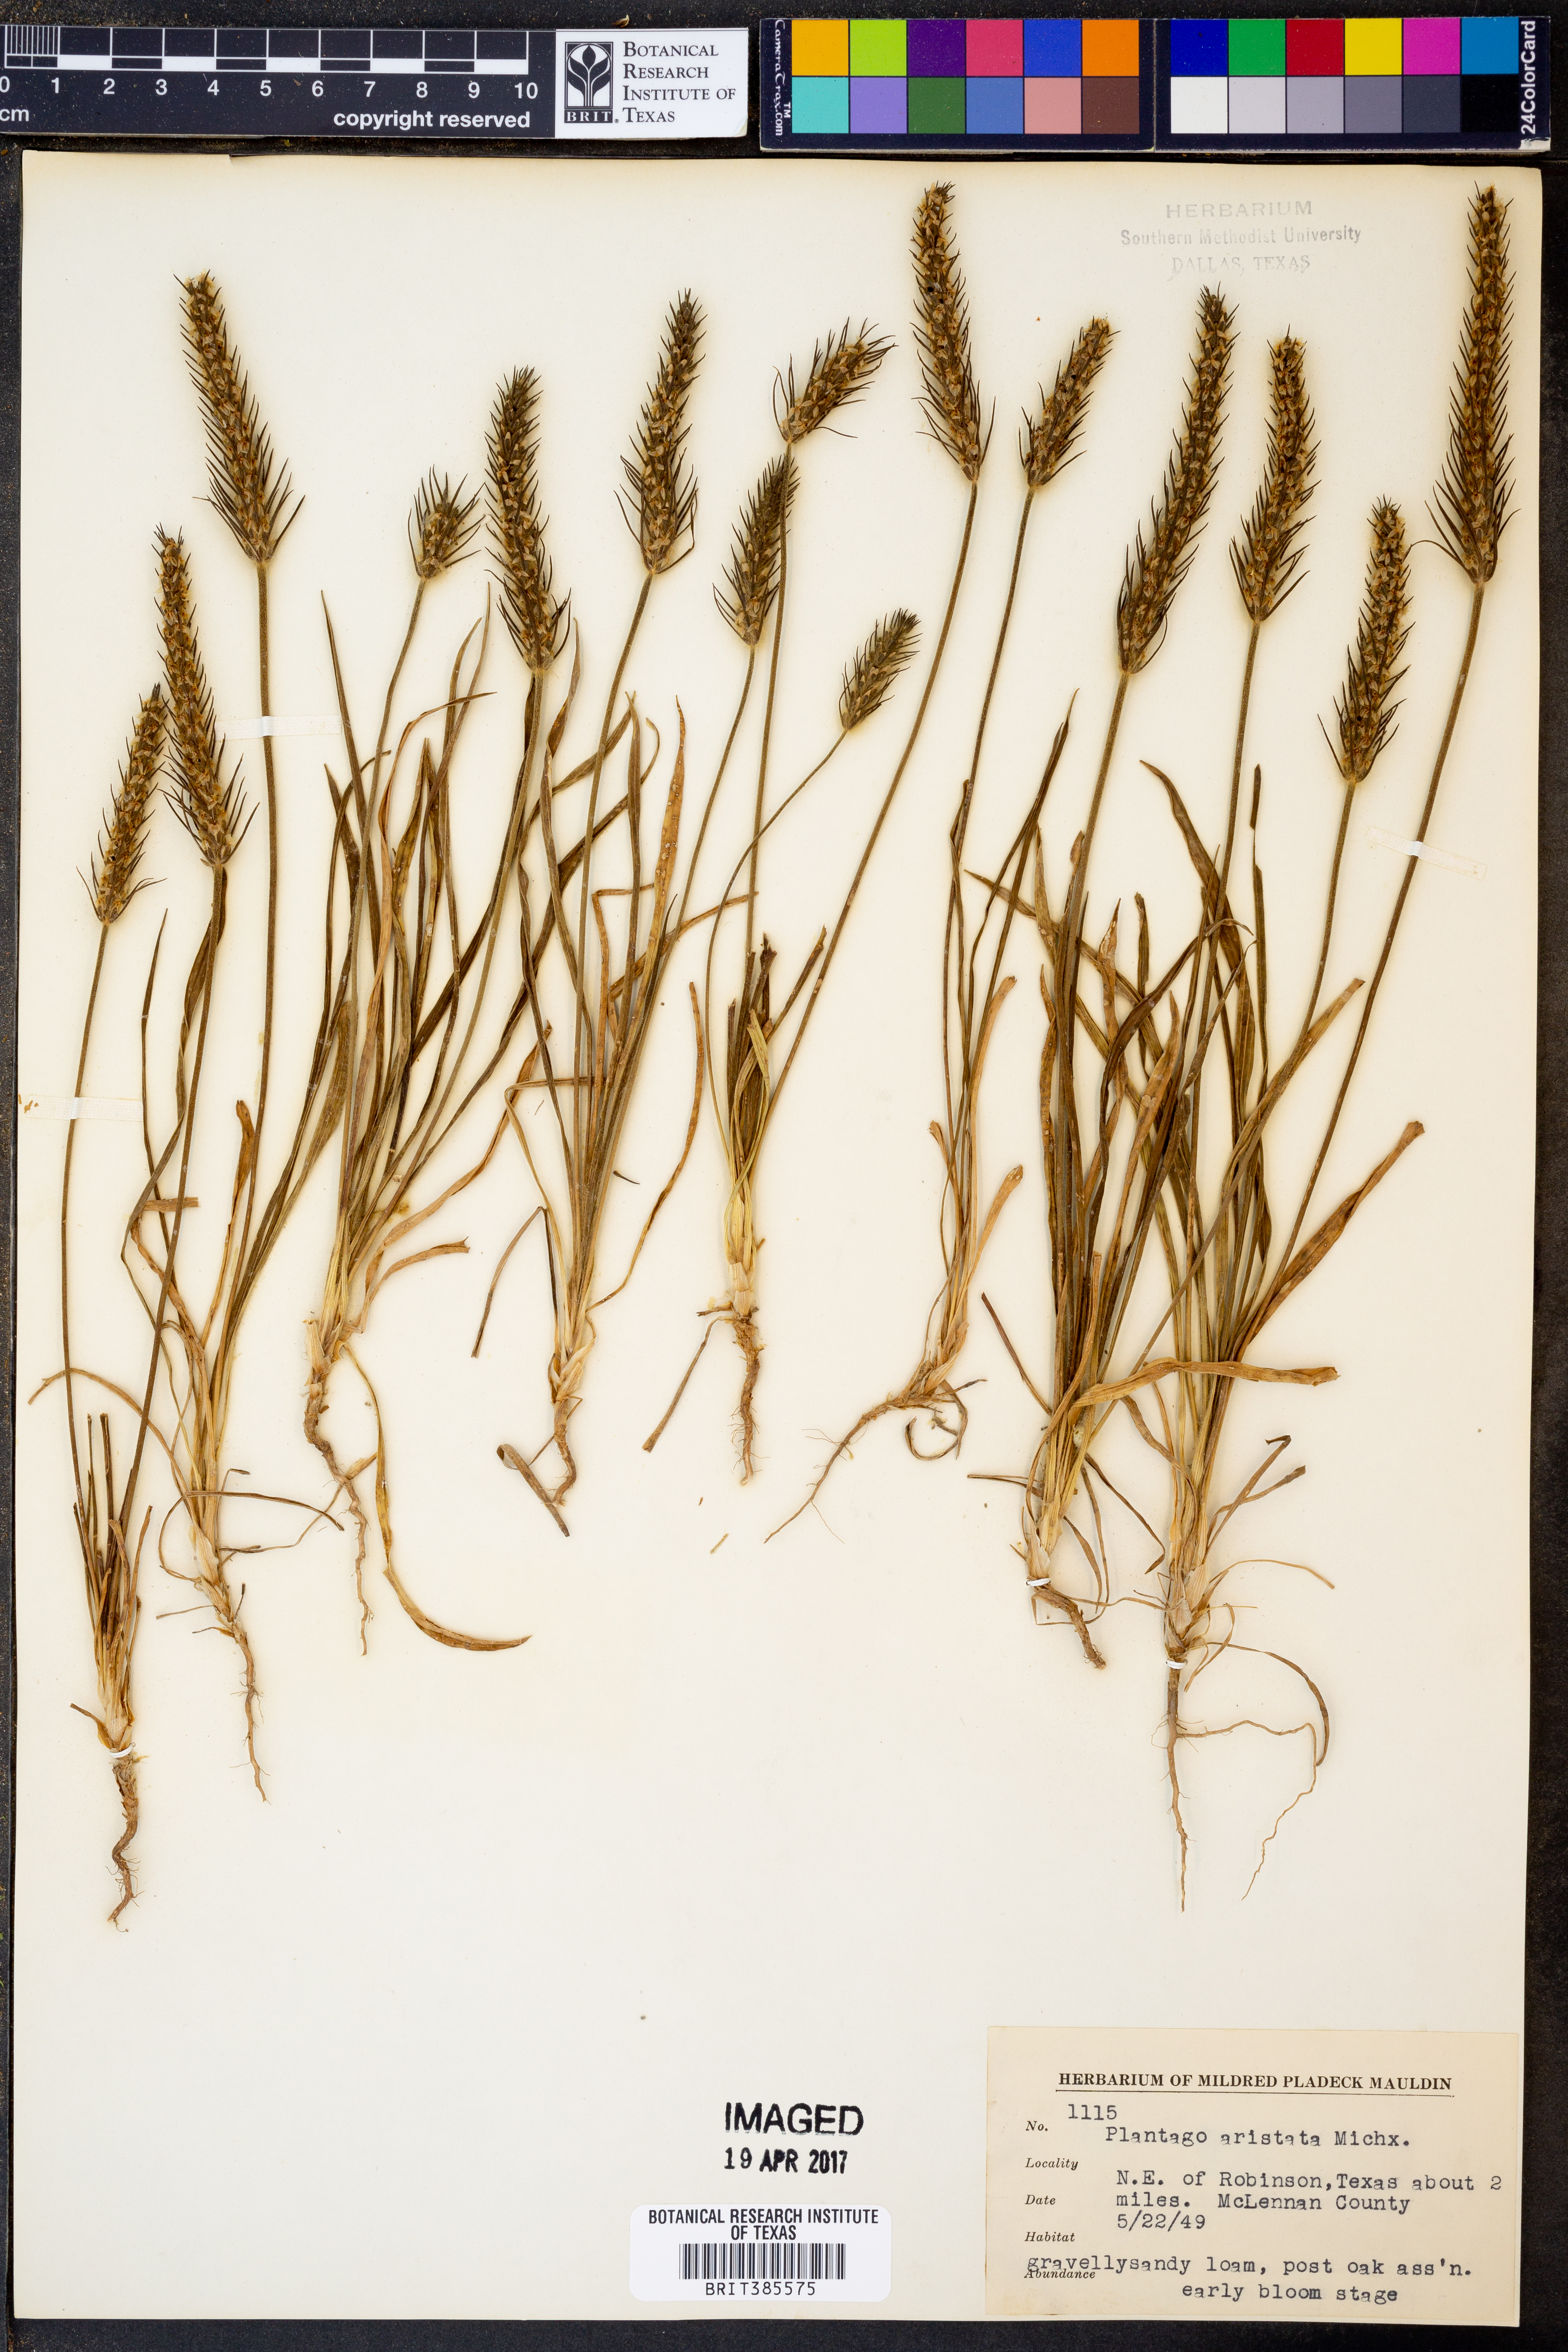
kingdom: Plantae
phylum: Tracheophyta
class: Magnoliopsida
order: Lamiales
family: Plantaginaceae
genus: Plantago
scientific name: Plantago aristata
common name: Bracted plantain
